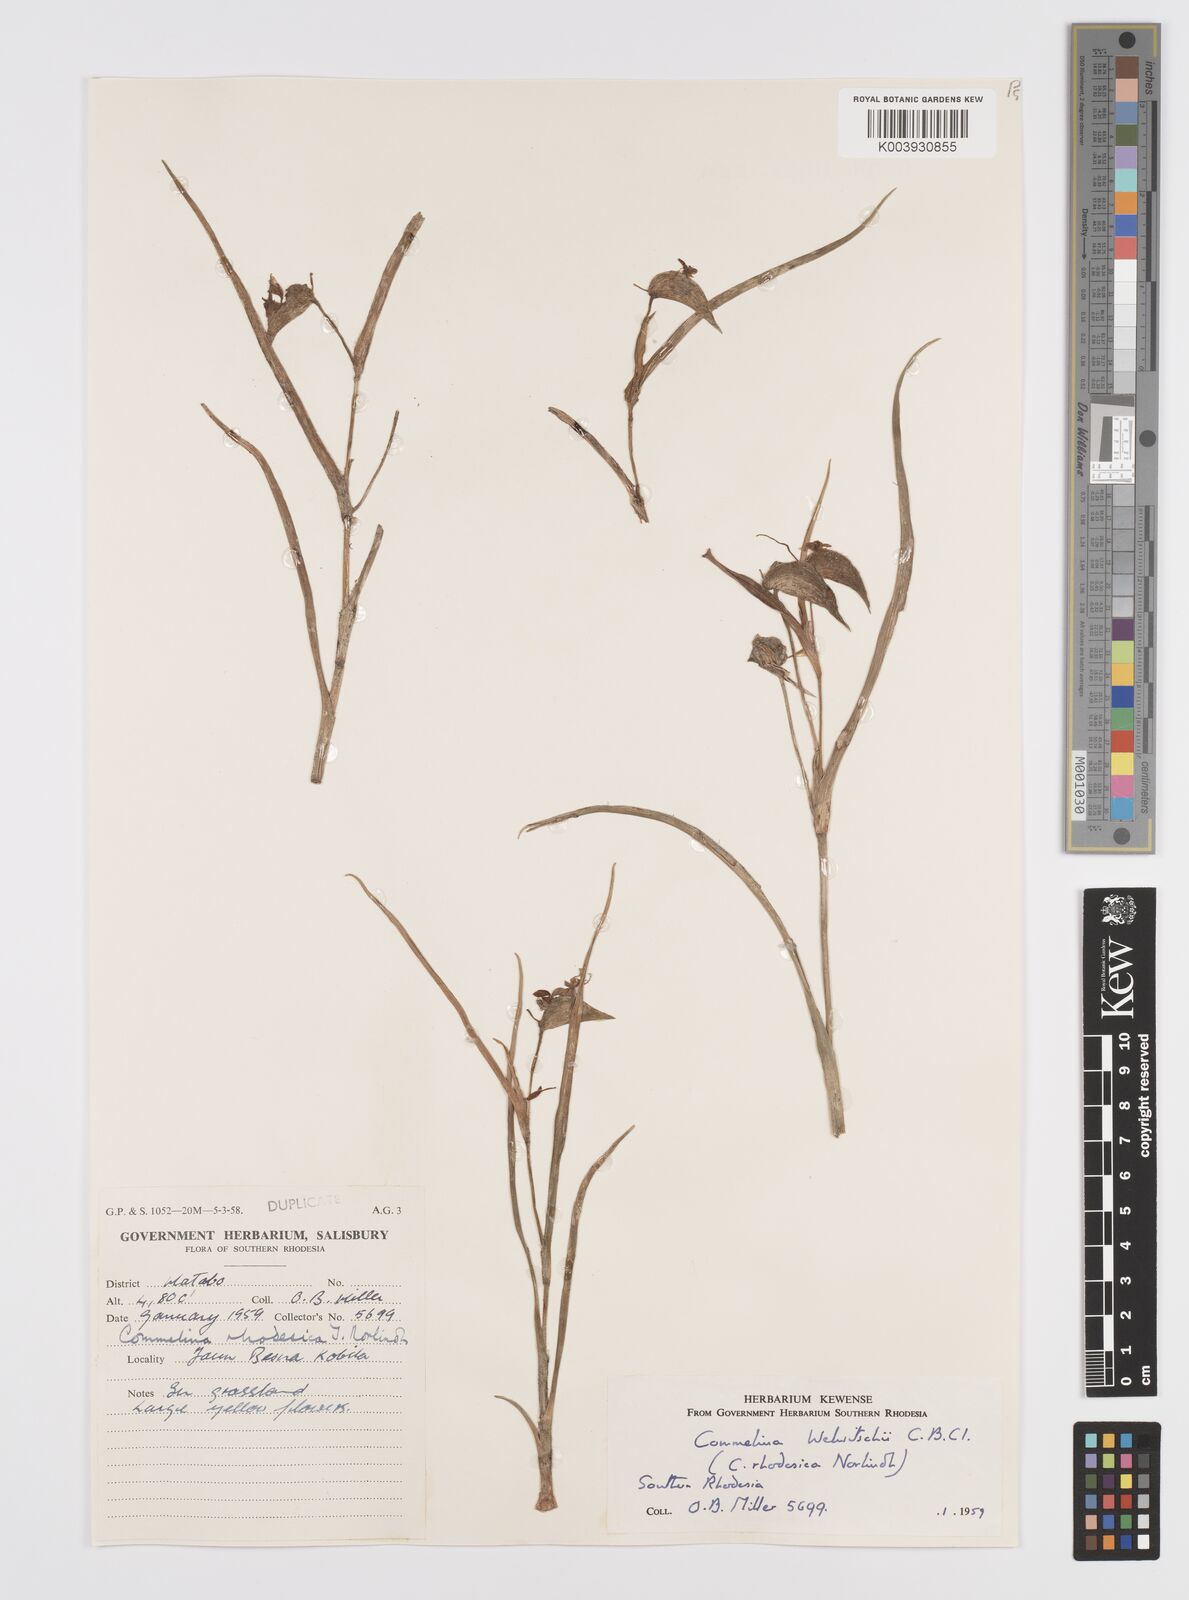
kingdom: Plantae
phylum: Tracheophyta
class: Liliopsida
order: Commelinales
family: Commelinaceae
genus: Commelina
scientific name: Commelina welwitschii
